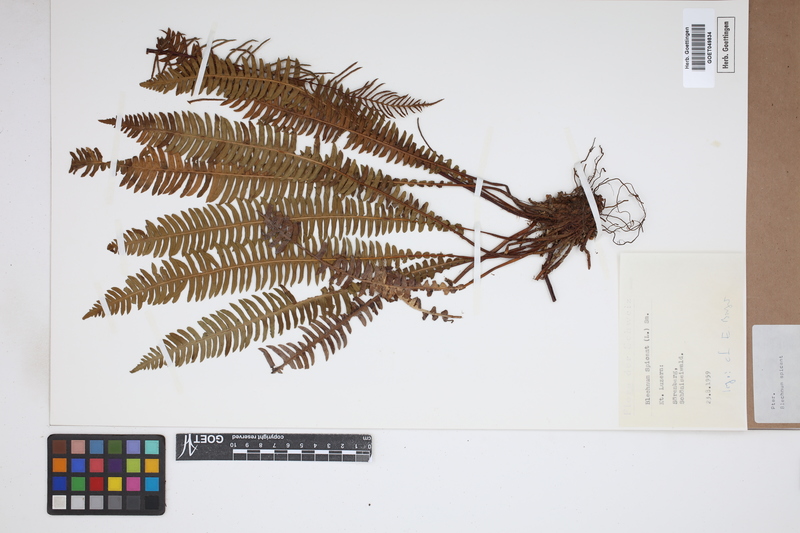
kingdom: Plantae
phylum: Tracheophyta
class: Polypodiopsida
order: Polypodiales
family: Blechnaceae
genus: Struthiopteris
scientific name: Struthiopteris spicant
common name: Deer fern
